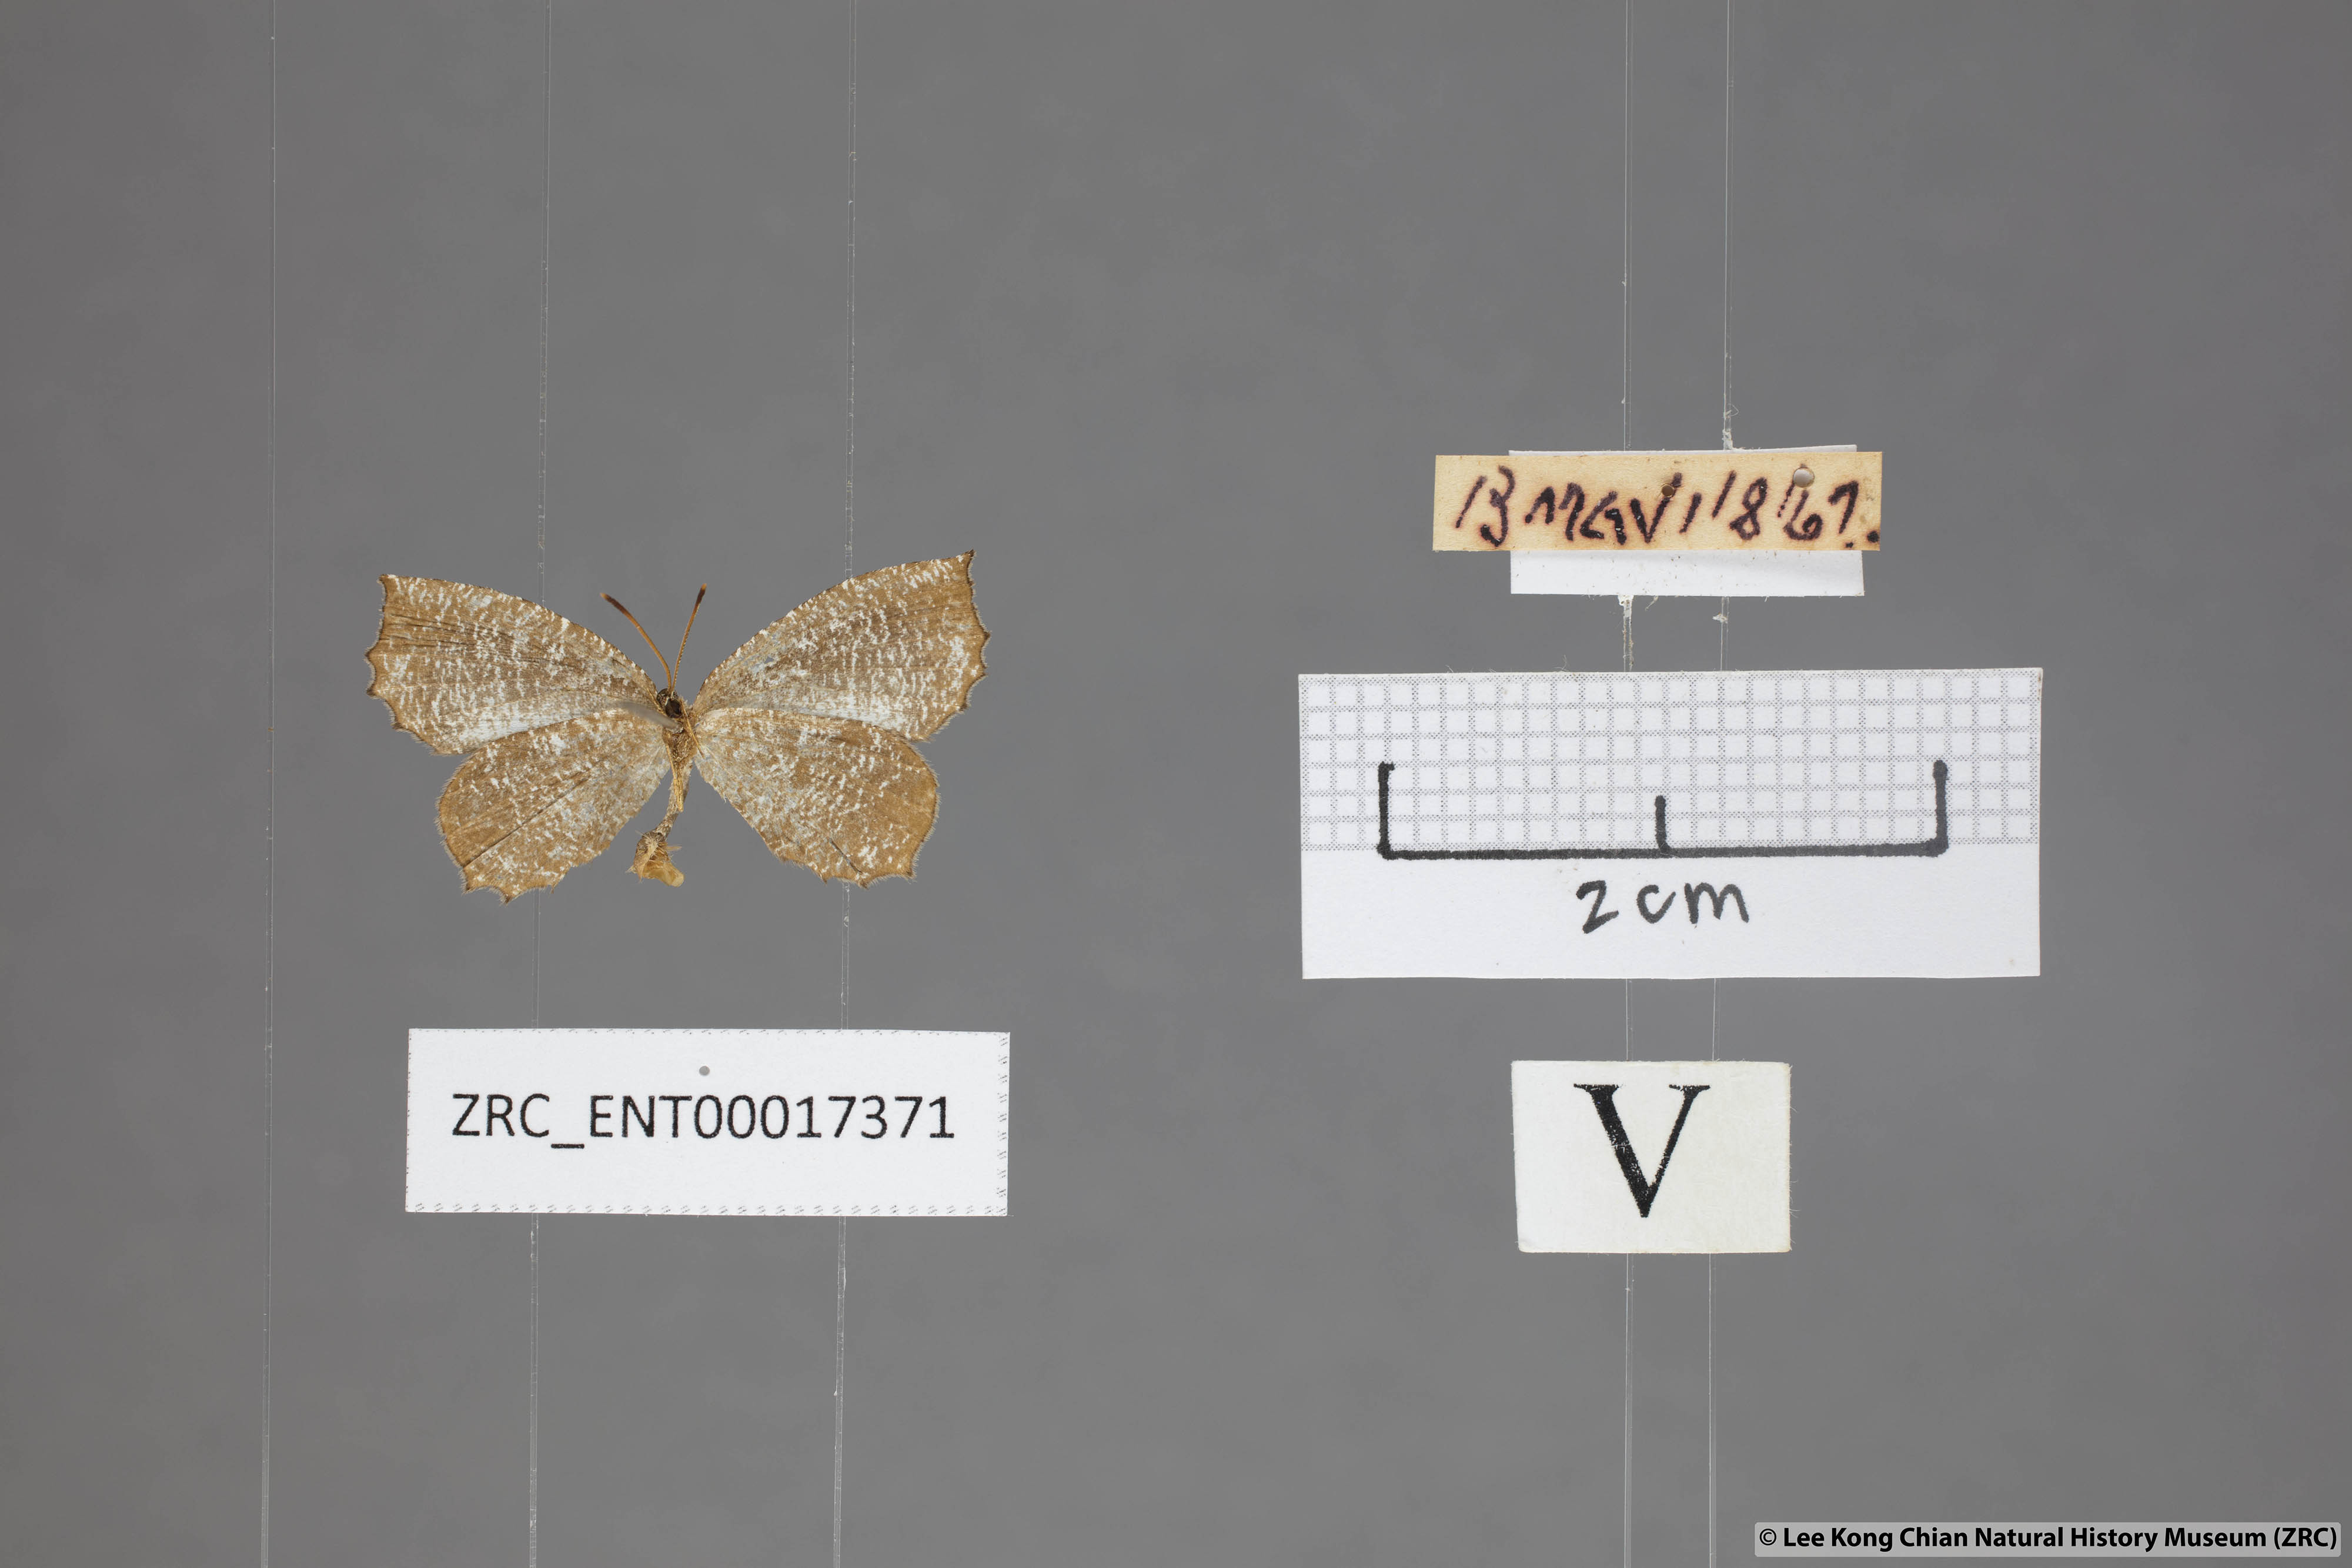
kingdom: Animalia
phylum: Arthropoda
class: Insecta
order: Lepidoptera
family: Lycaenidae
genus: Logania
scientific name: Logania malayica
